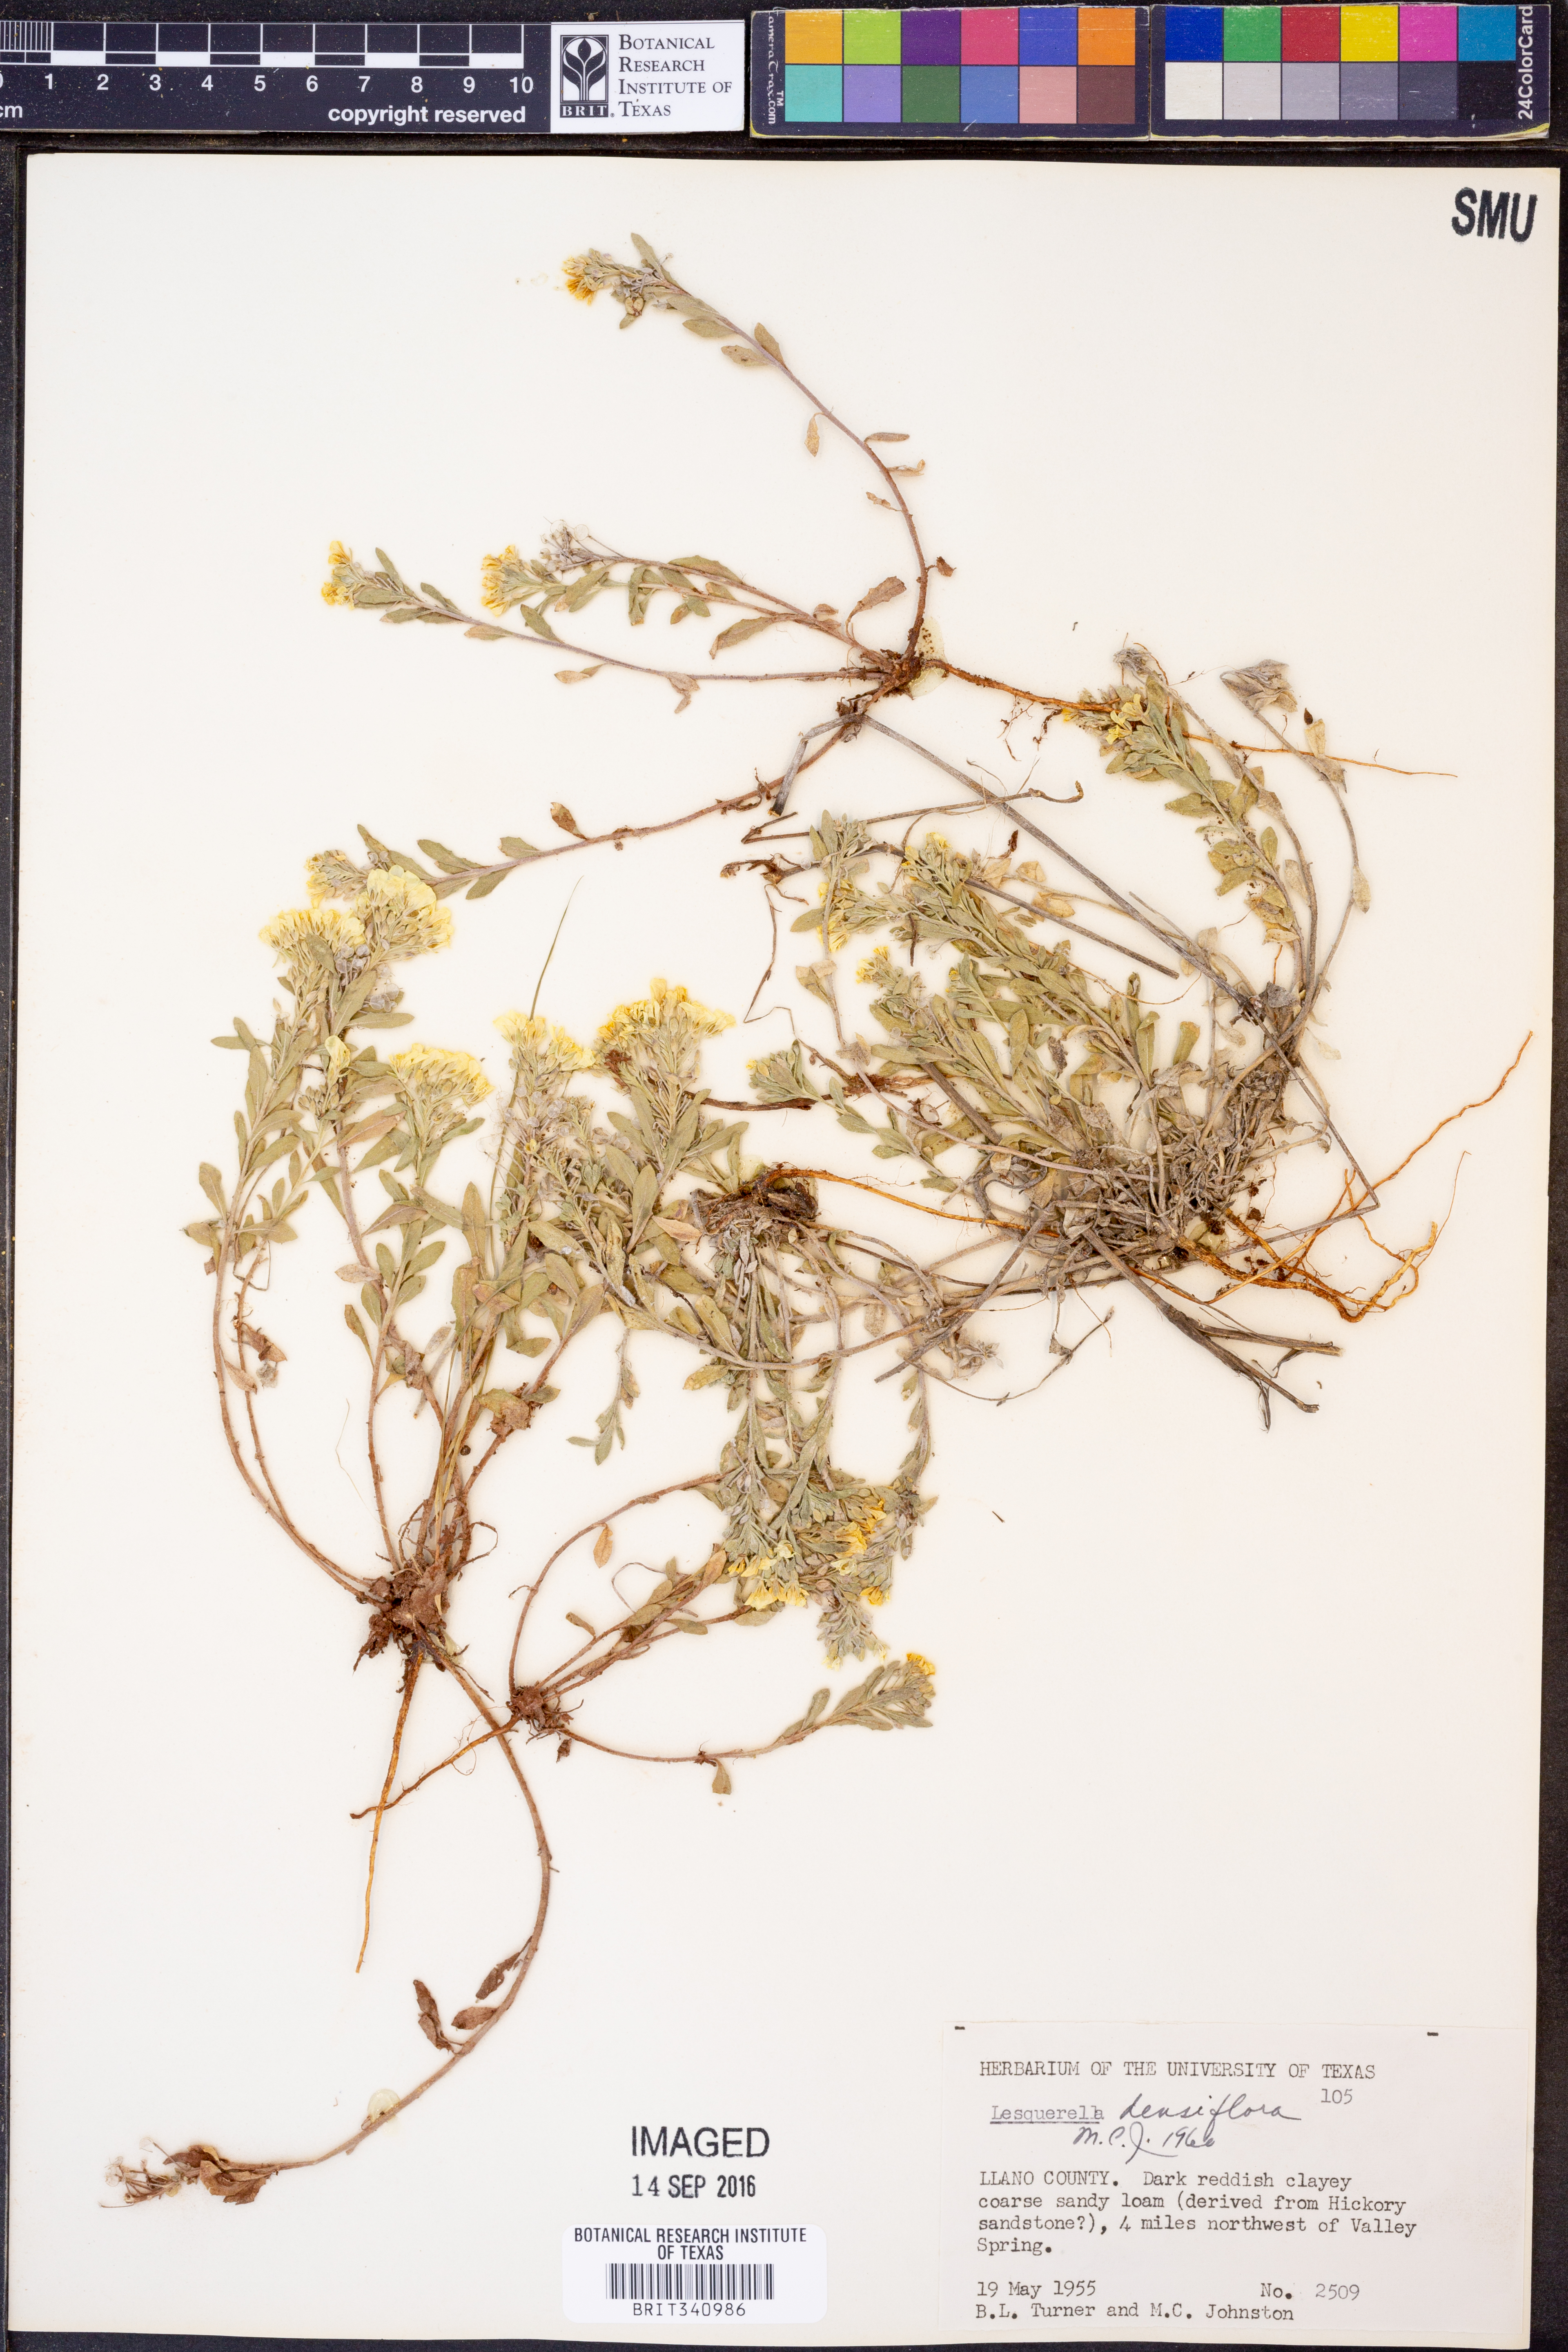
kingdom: Plantae
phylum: Tracheophyta
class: Magnoliopsida
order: Brassicales
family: Brassicaceae
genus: Physaria
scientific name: Physaria densiflora
